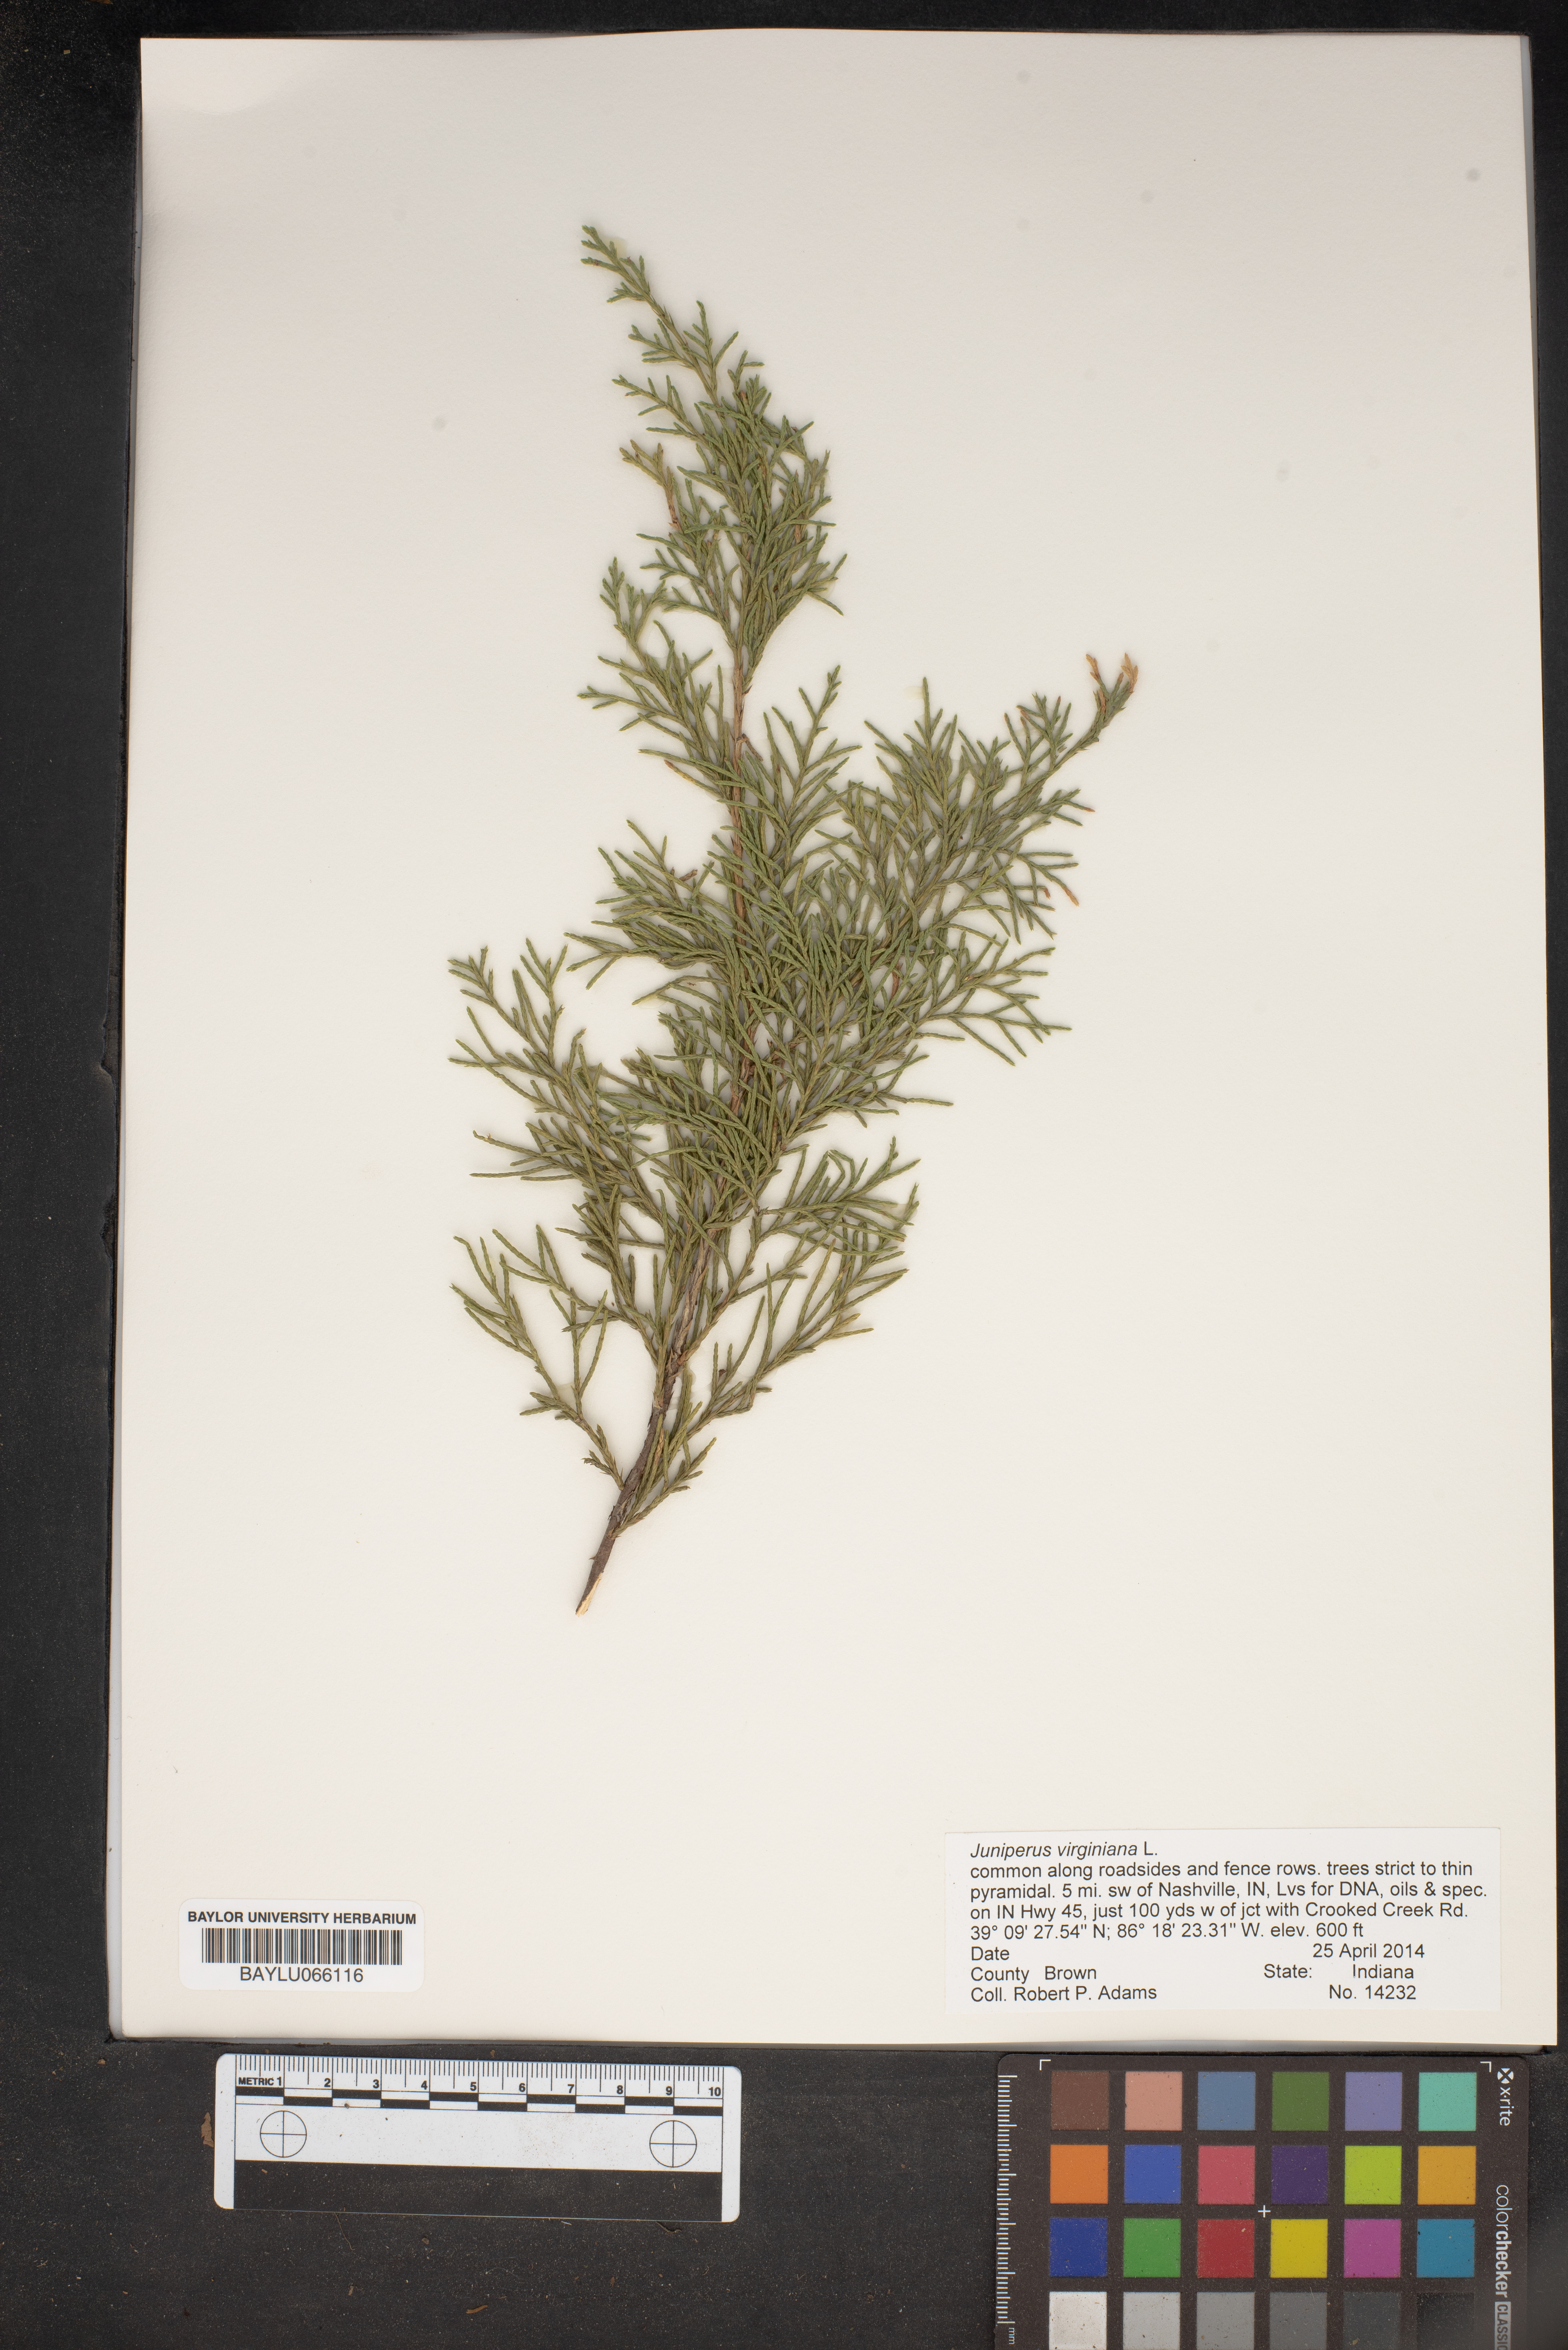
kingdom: Plantae
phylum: Tracheophyta
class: Pinopsida
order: Pinales
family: Cupressaceae
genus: Juniperus
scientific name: Juniperus virginiana
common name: Red juniper
